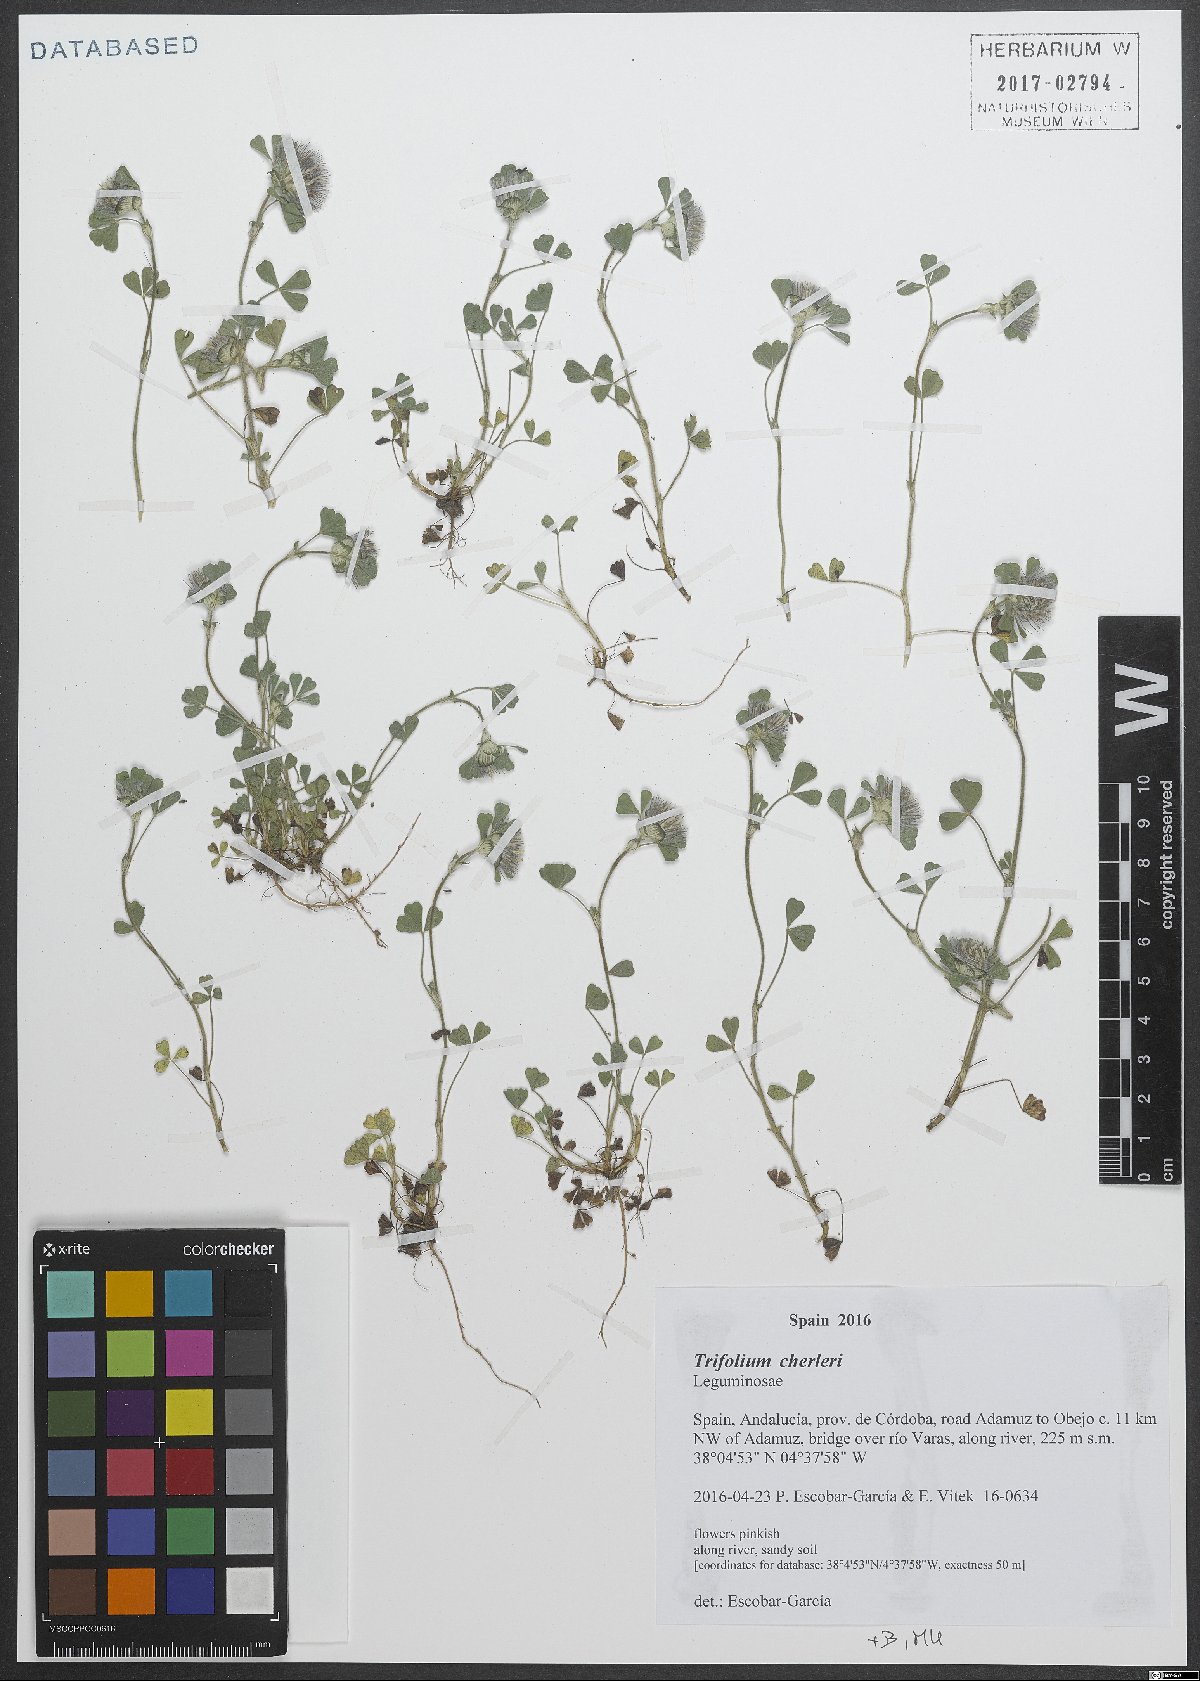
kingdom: Plantae
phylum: Tracheophyta
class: Magnoliopsida
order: Fabales
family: Fabaceae
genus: Trifolium
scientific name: Trifolium cherleri
